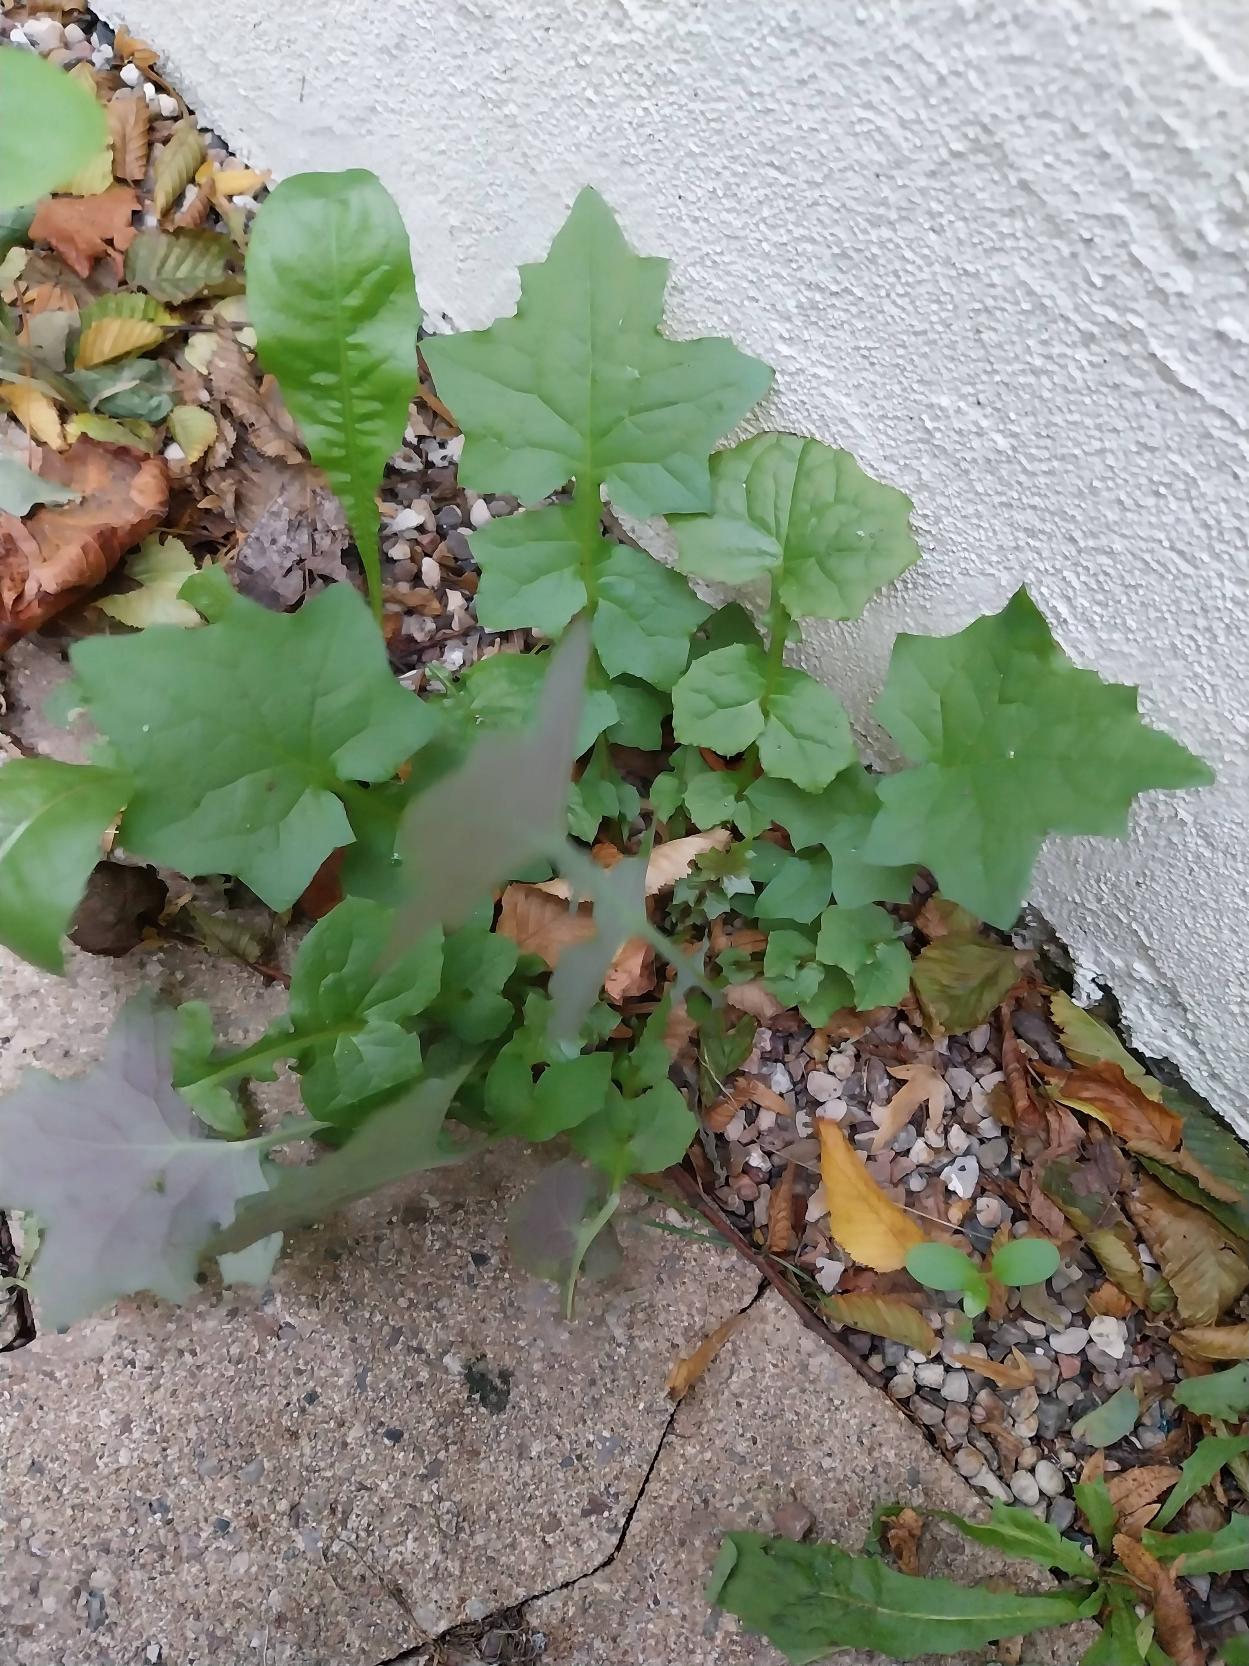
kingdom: Plantae
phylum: Tracheophyta
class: Magnoliopsida
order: Asterales
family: Asteraceae
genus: Mycelis
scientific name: Mycelis muralis
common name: Skov-salat
